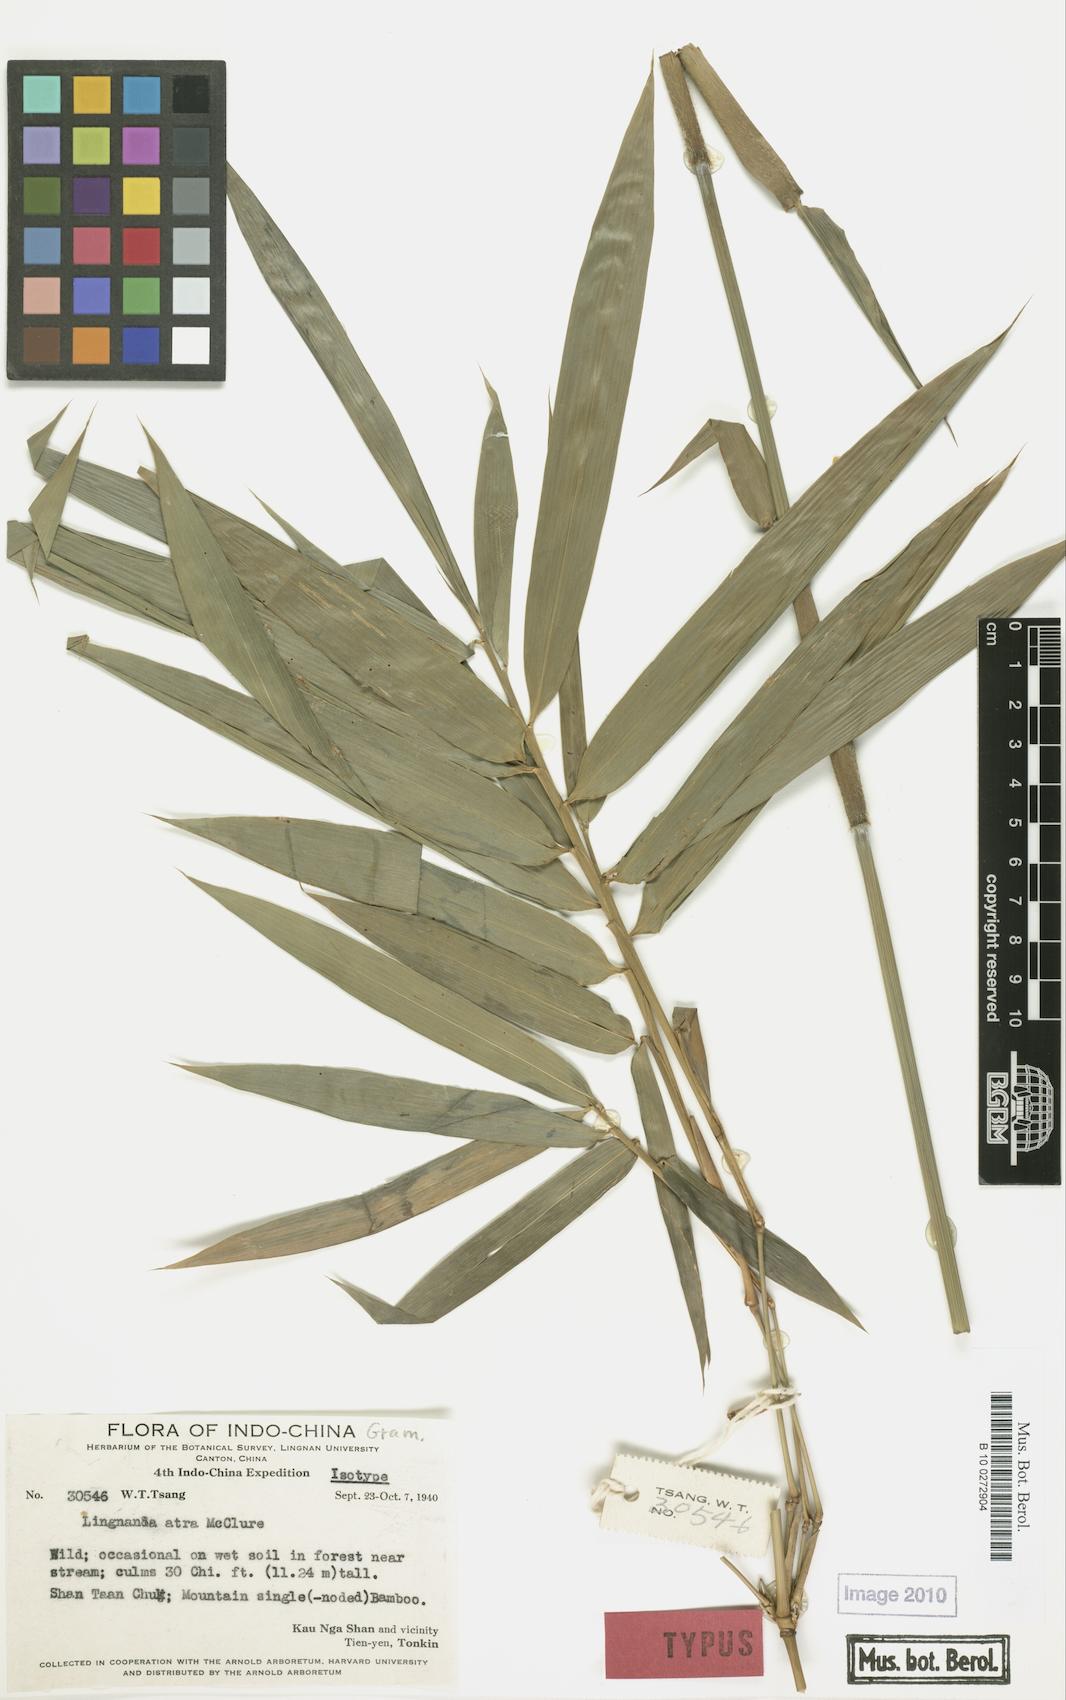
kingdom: Plantae
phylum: Tracheophyta
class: Liliopsida
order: Poales
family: Poaceae
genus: Bambusa
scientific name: Bambusa australis
